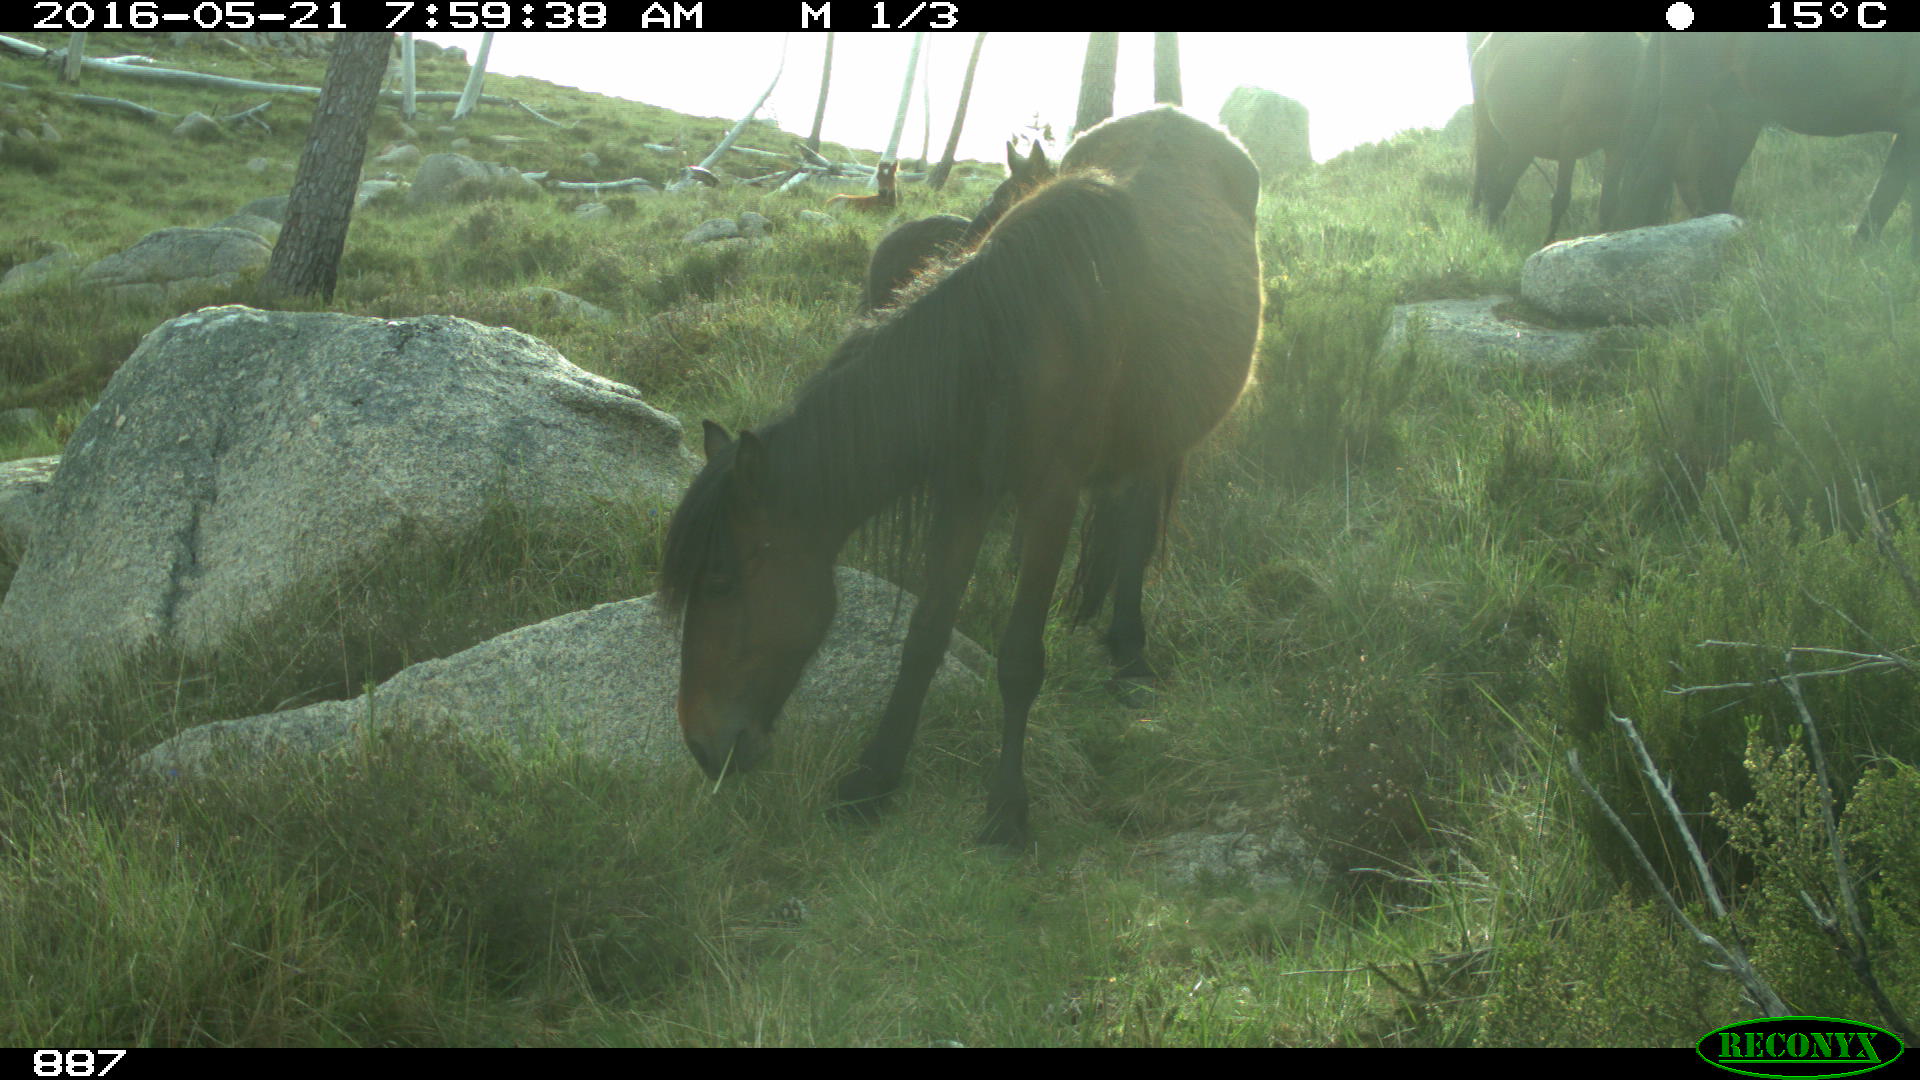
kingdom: Animalia
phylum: Chordata
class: Mammalia
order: Perissodactyla
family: Equidae
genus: Equus
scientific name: Equus caballus
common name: Horse
